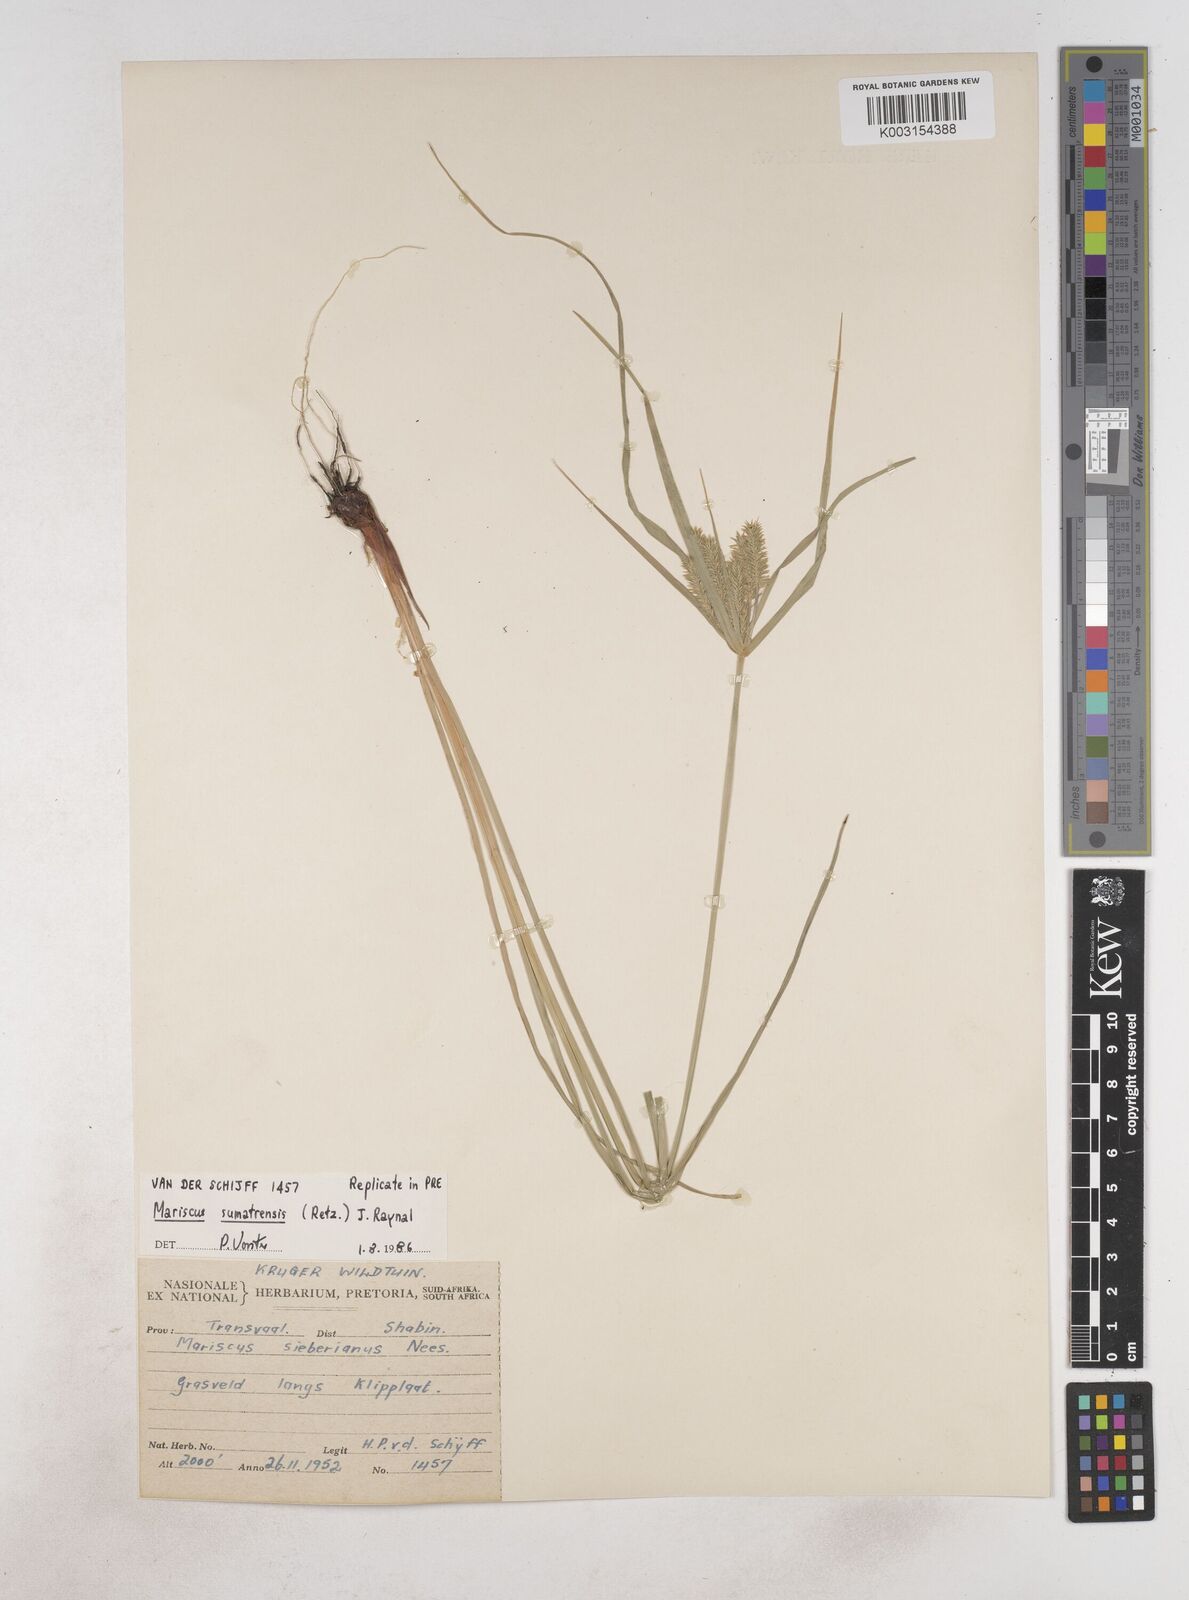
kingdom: Plantae
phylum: Tracheophyta
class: Liliopsida
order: Poales
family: Cyperaceae
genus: Cyperus
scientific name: Cyperus cyperoides
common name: Pacific island flat sedge
